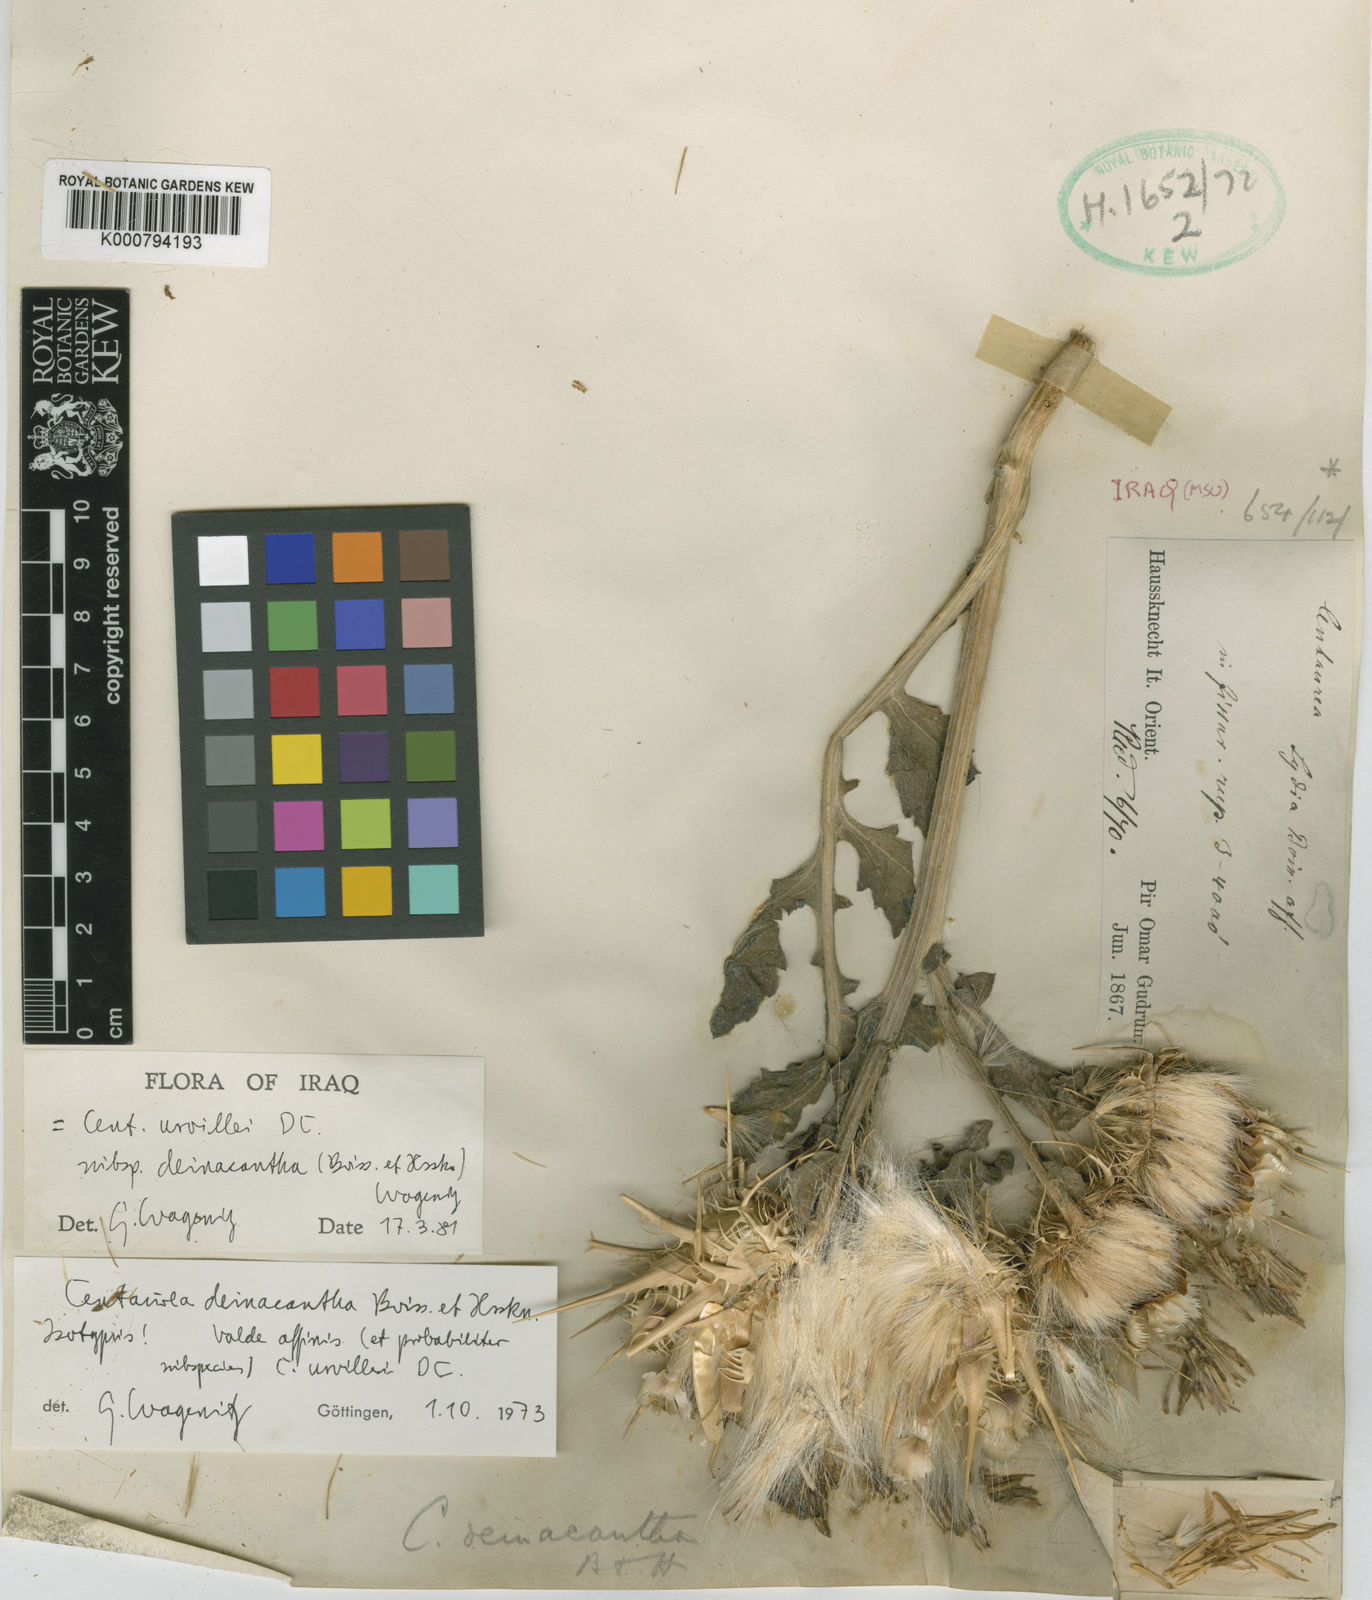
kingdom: Plantae
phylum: Tracheophyta
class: Magnoliopsida
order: Asterales
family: Asteraceae
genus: Centaurea
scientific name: Centaurea urvillei
